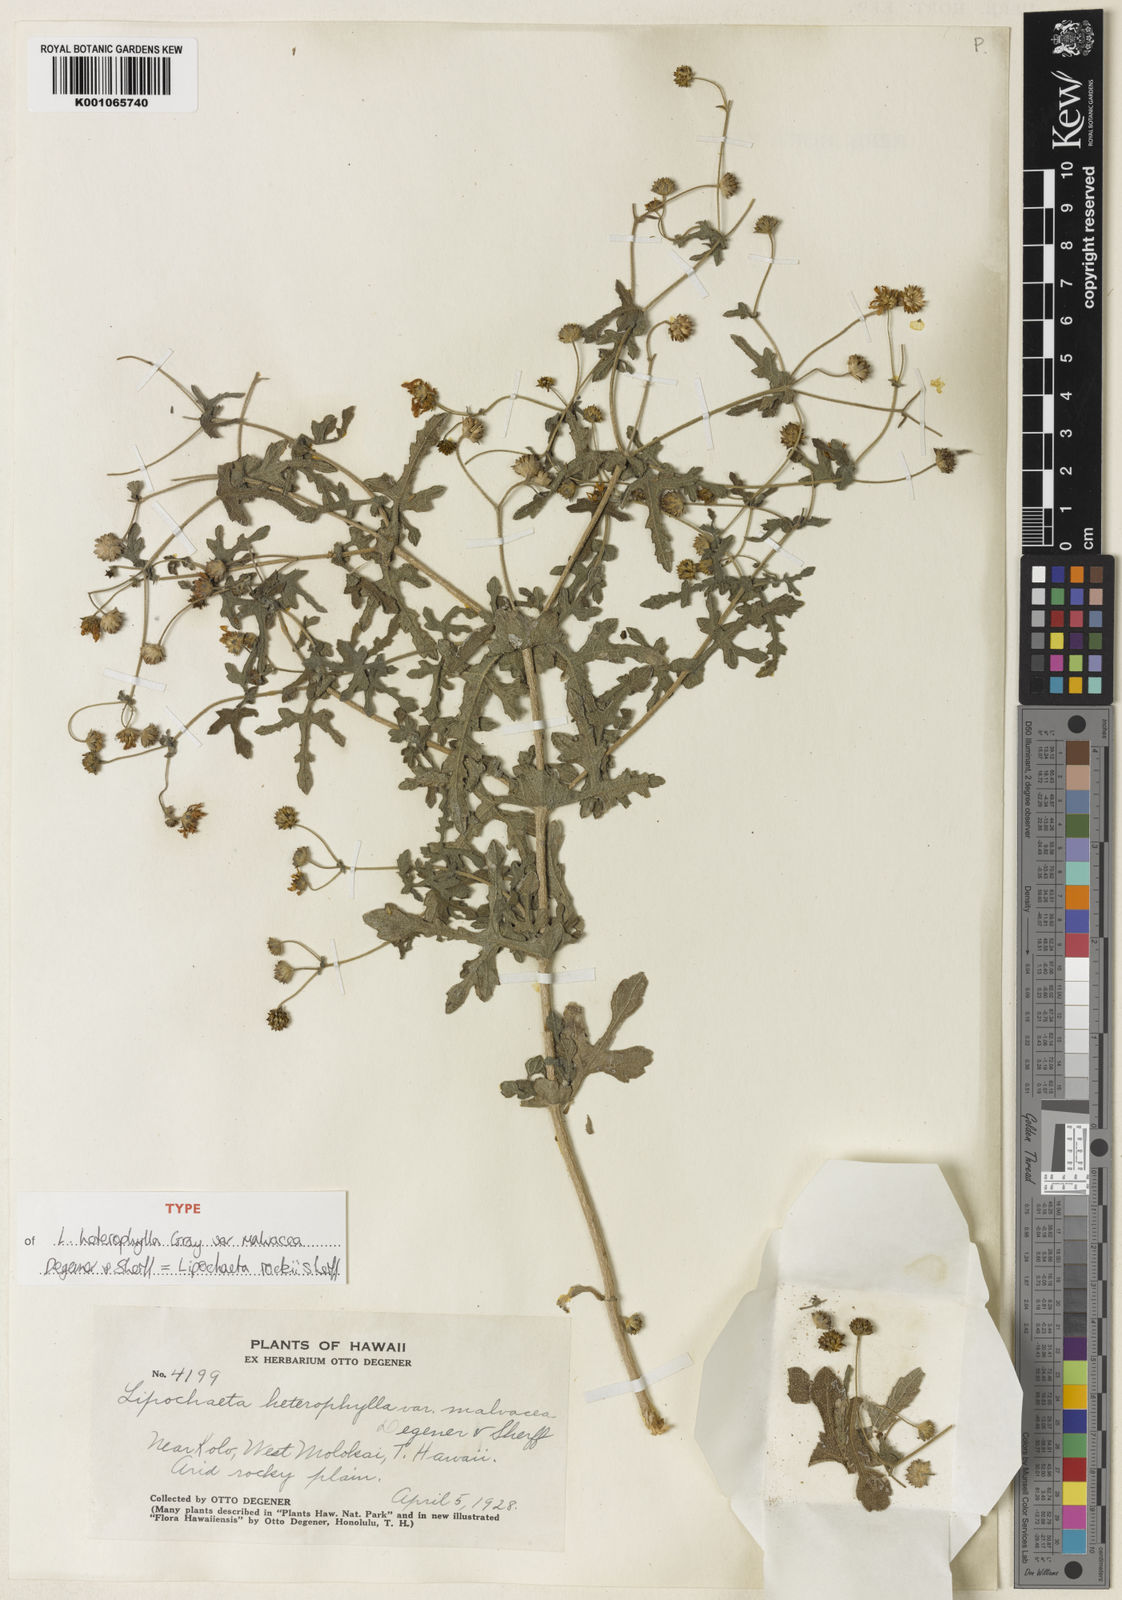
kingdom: Plantae
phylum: Tracheophyta
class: Magnoliopsida
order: Asterales
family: Asteraceae
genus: Lipochaeta
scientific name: Lipochaeta rockii
